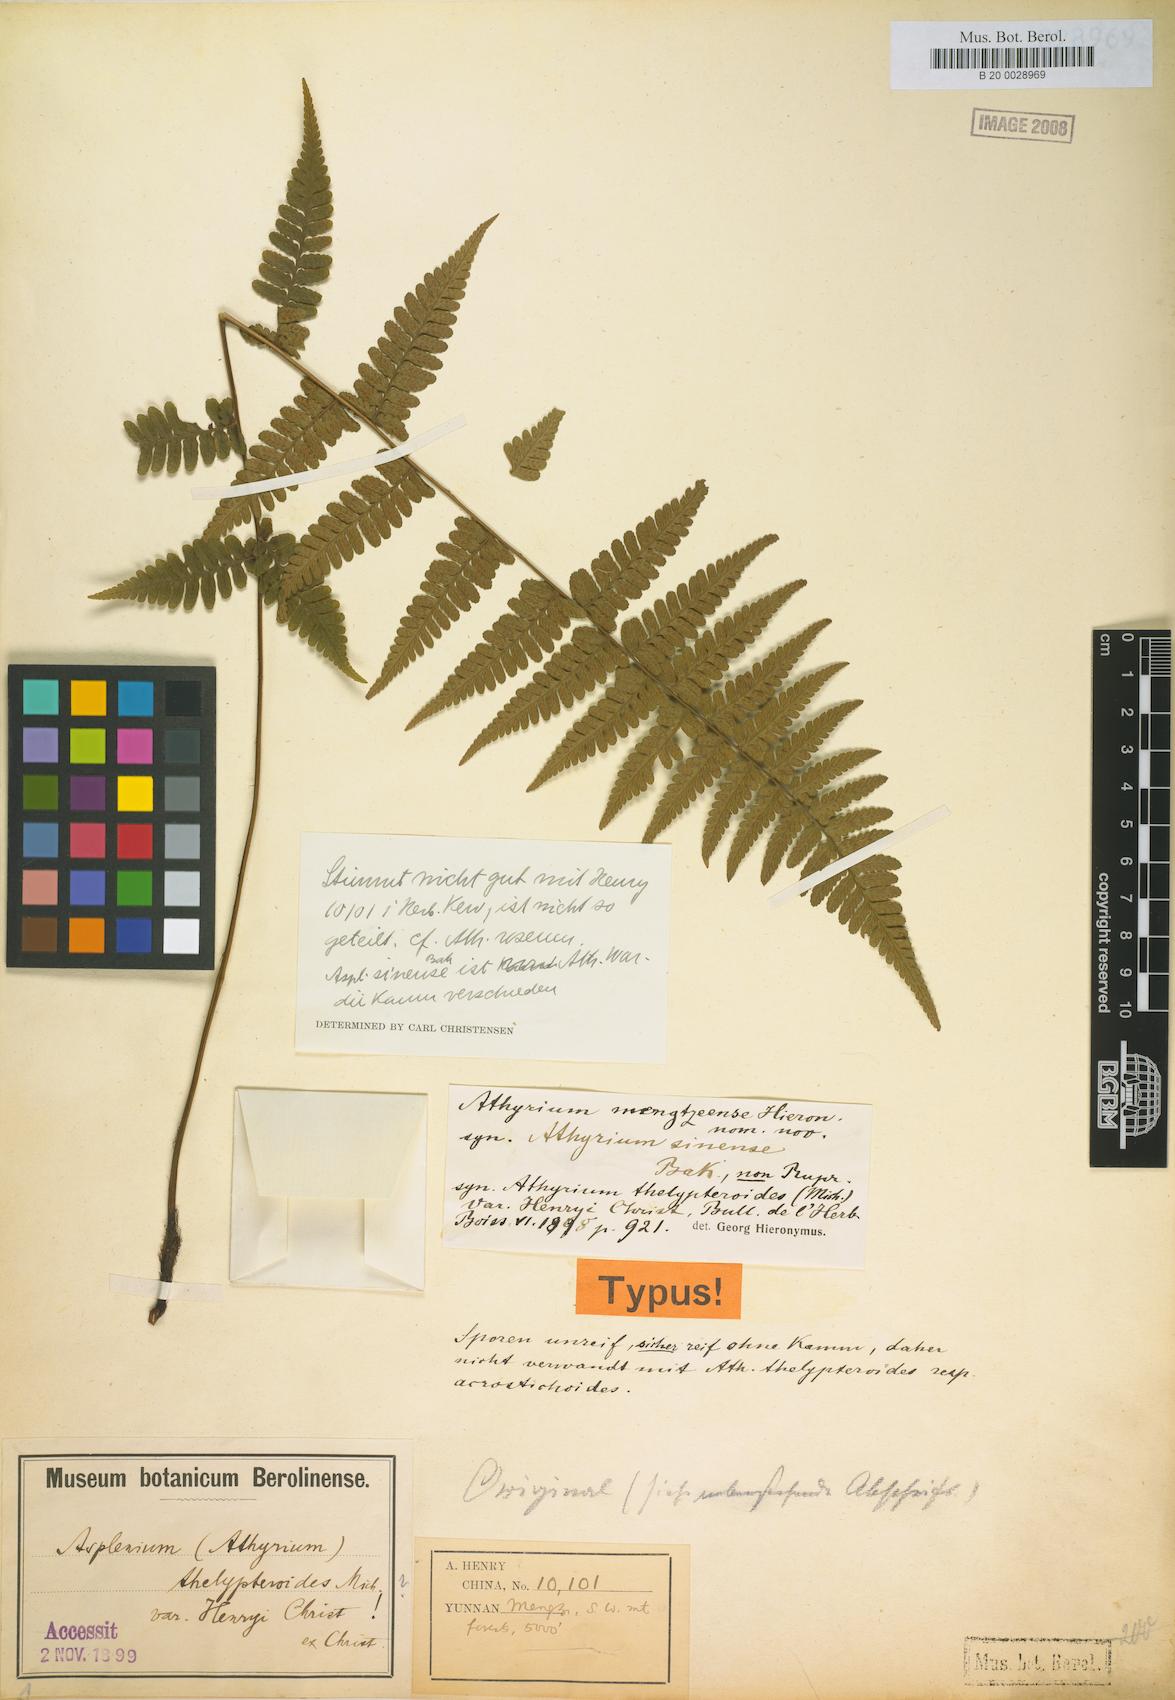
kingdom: Plantae
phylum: Tracheophyta
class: Polypodiopsida
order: Polypodiales
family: Athyriaceae
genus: Athyrium
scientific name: Athyrium mengtzeense
